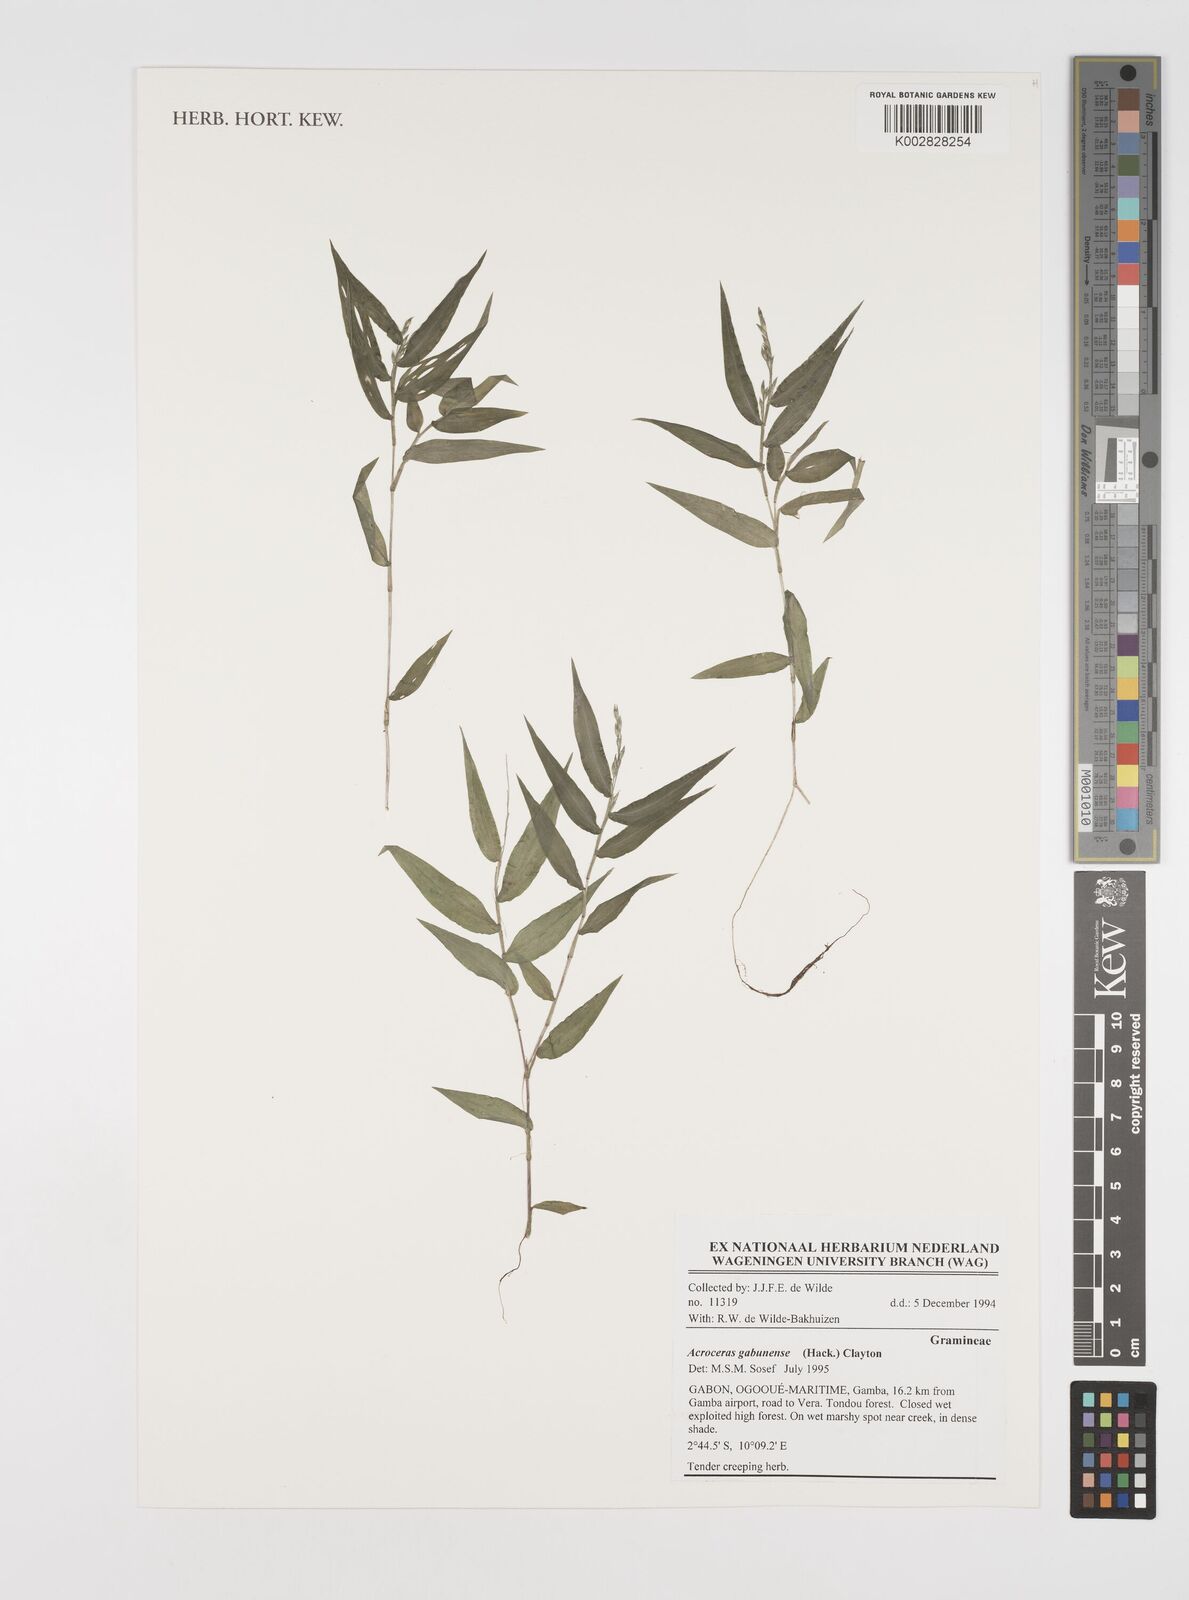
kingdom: Plantae
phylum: Tracheophyta
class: Liliopsida
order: Poales
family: Poaceae
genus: Acroceras
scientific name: Acroceras gabunense
